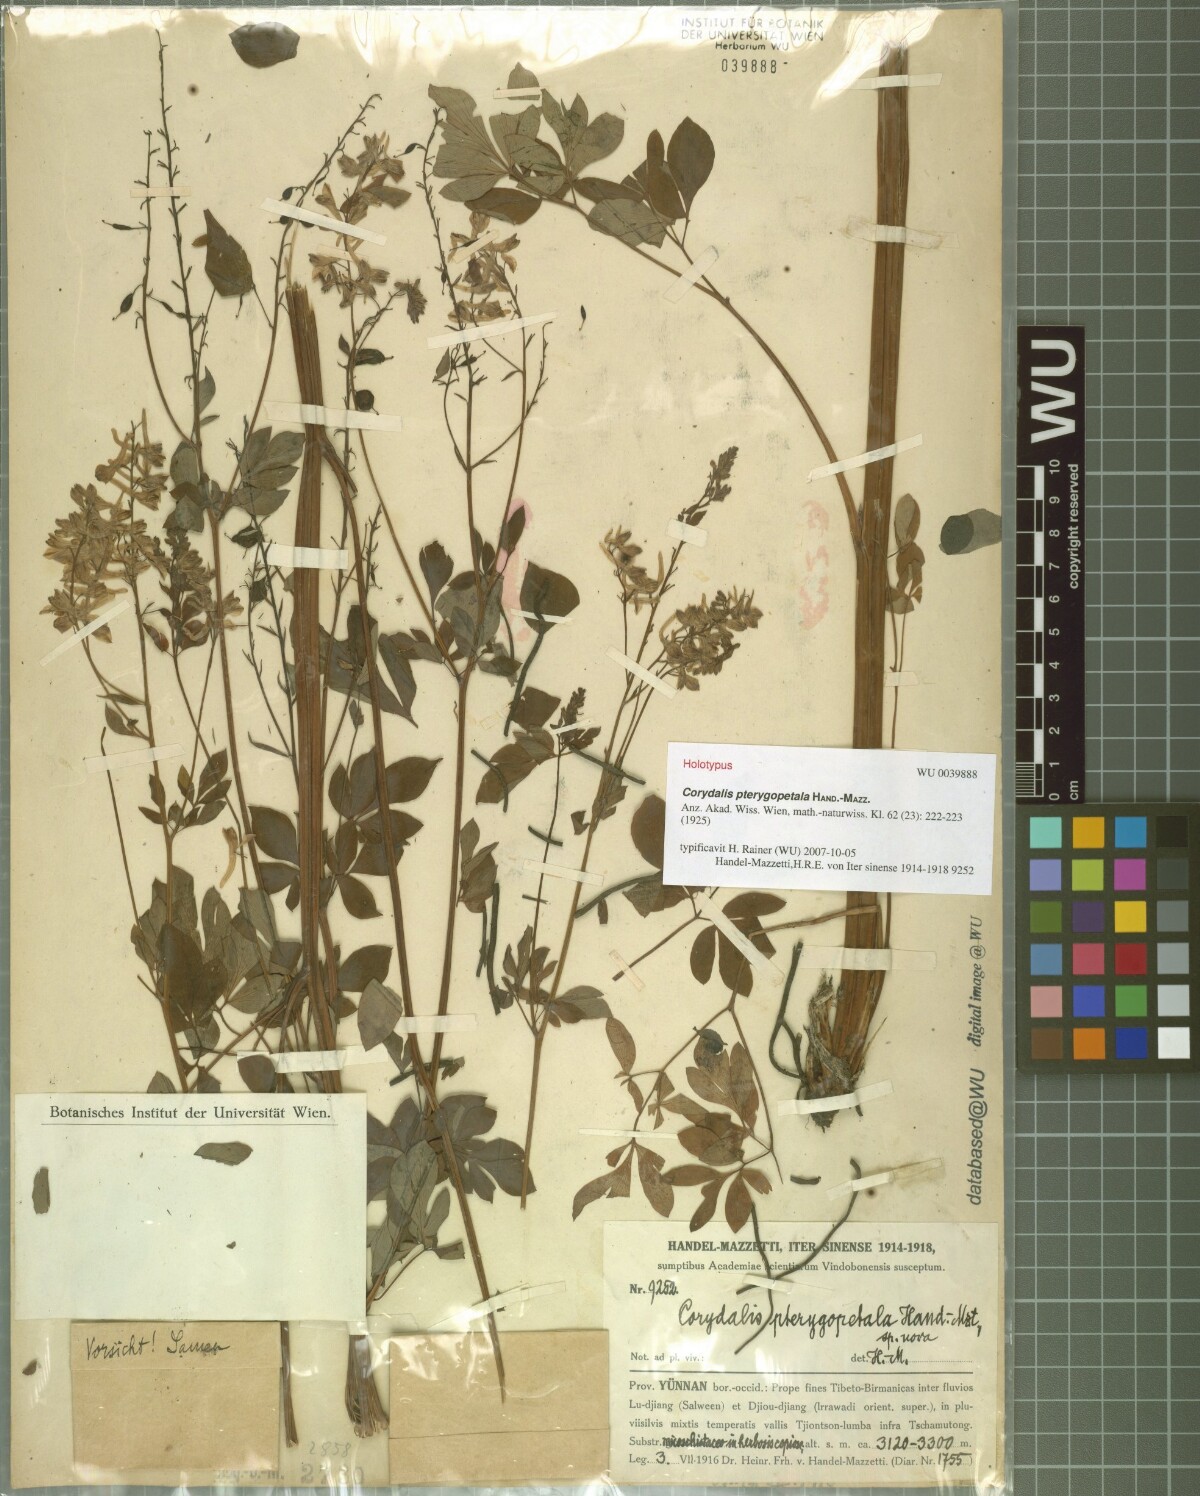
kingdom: Plantae
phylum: Tracheophyta
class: Magnoliopsida
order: Ranunculales
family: Papaveraceae
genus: Corydalis
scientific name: Corydalis pterygopetala
